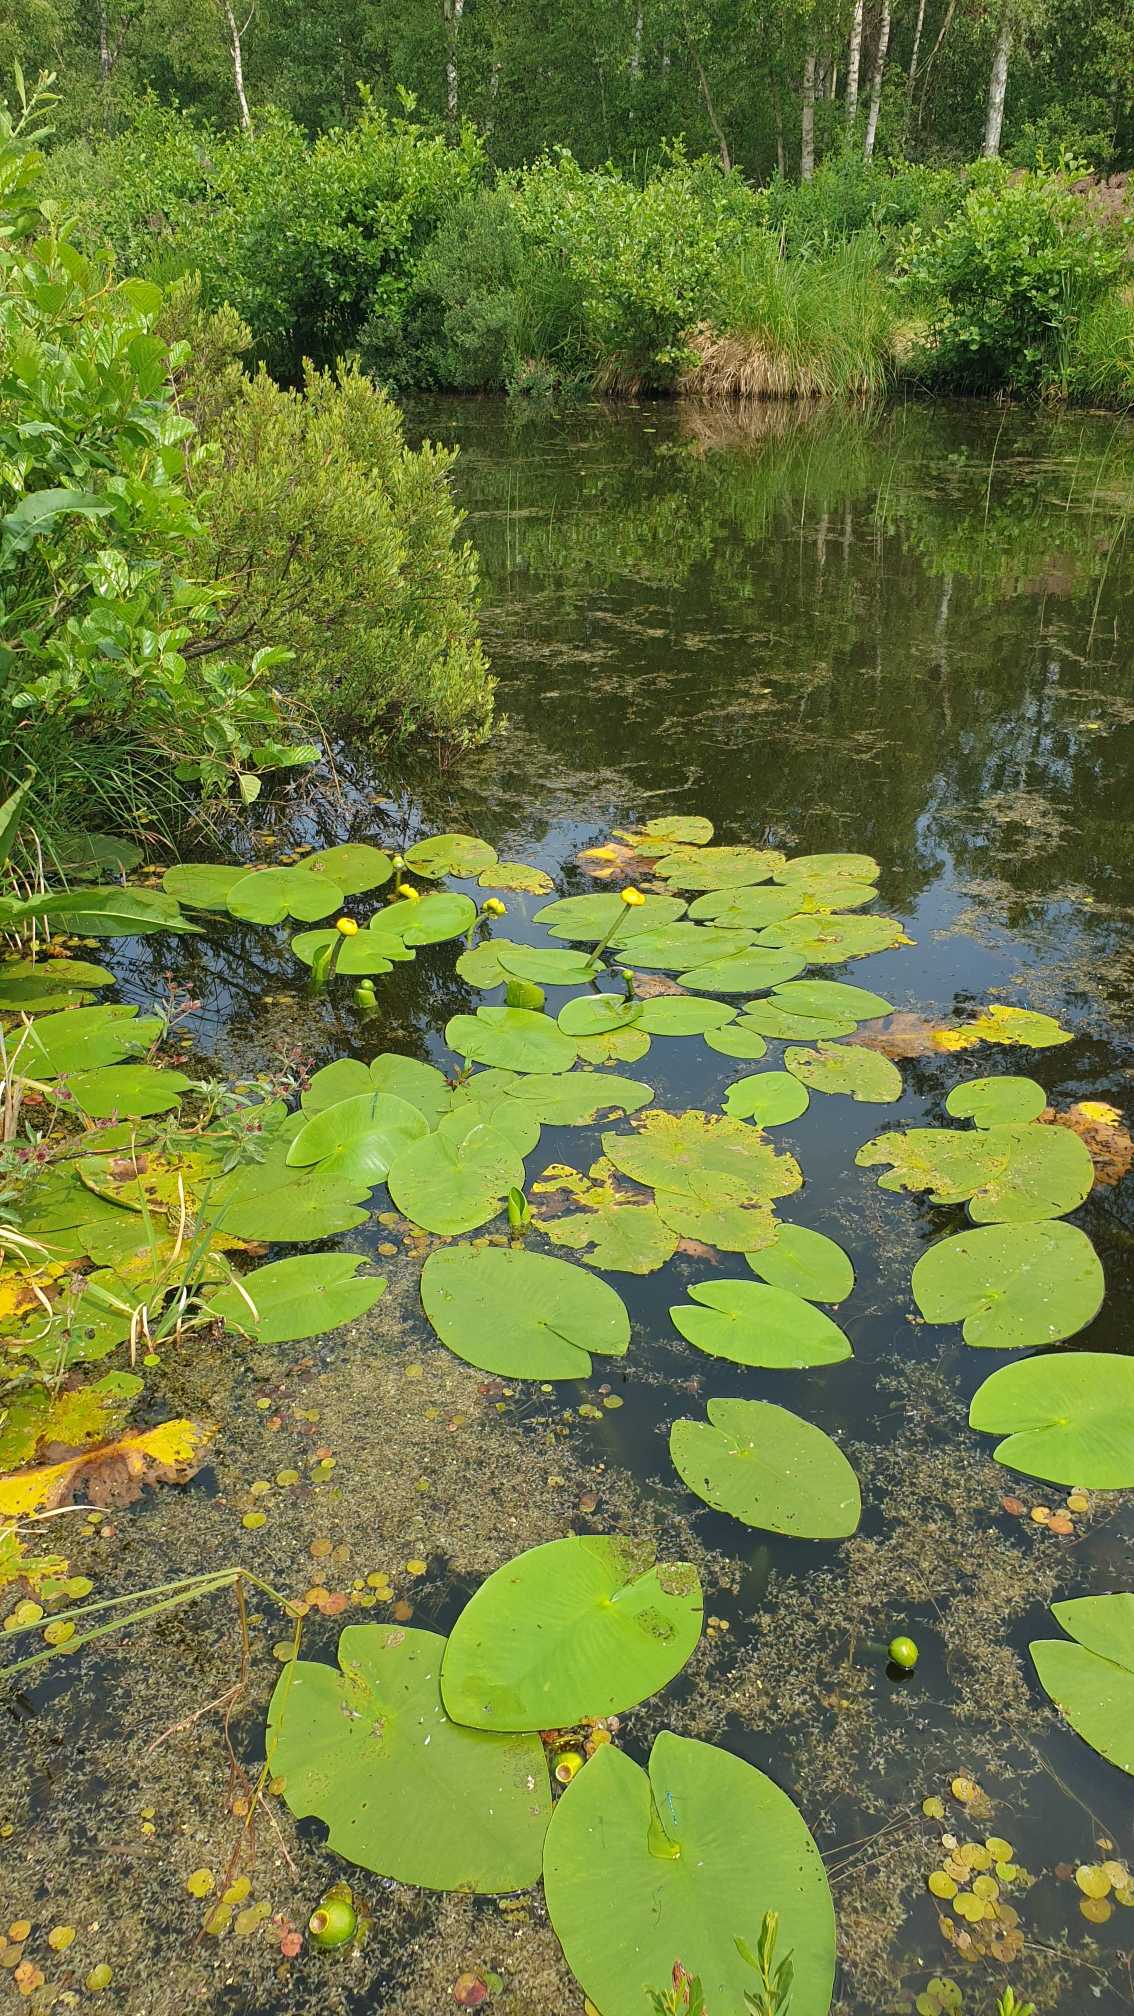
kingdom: Plantae
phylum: Tracheophyta
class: Magnoliopsida
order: Nymphaeales
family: Nymphaeaceae
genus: Nuphar
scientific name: Nuphar lutea
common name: Gul åkande
